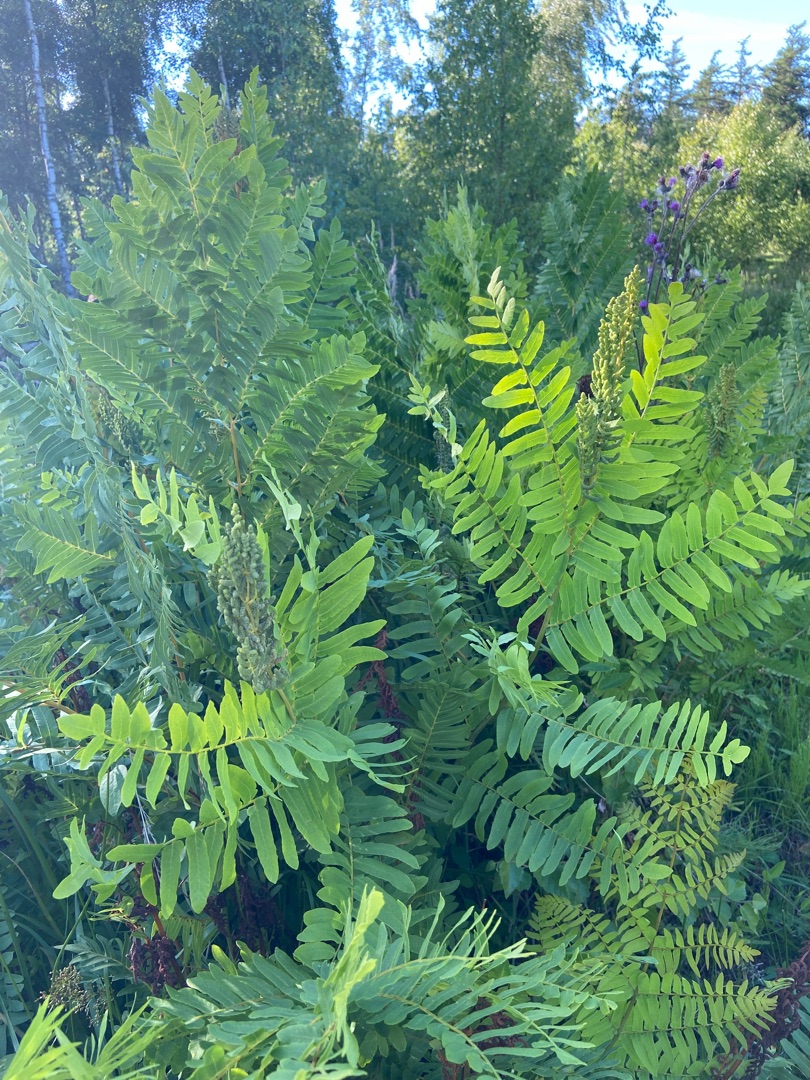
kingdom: Plantae
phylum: Tracheophyta
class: Polypodiopsida
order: Osmundales
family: Osmundaceae
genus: Osmunda
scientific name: Osmunda regalis
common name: Kongebregne
